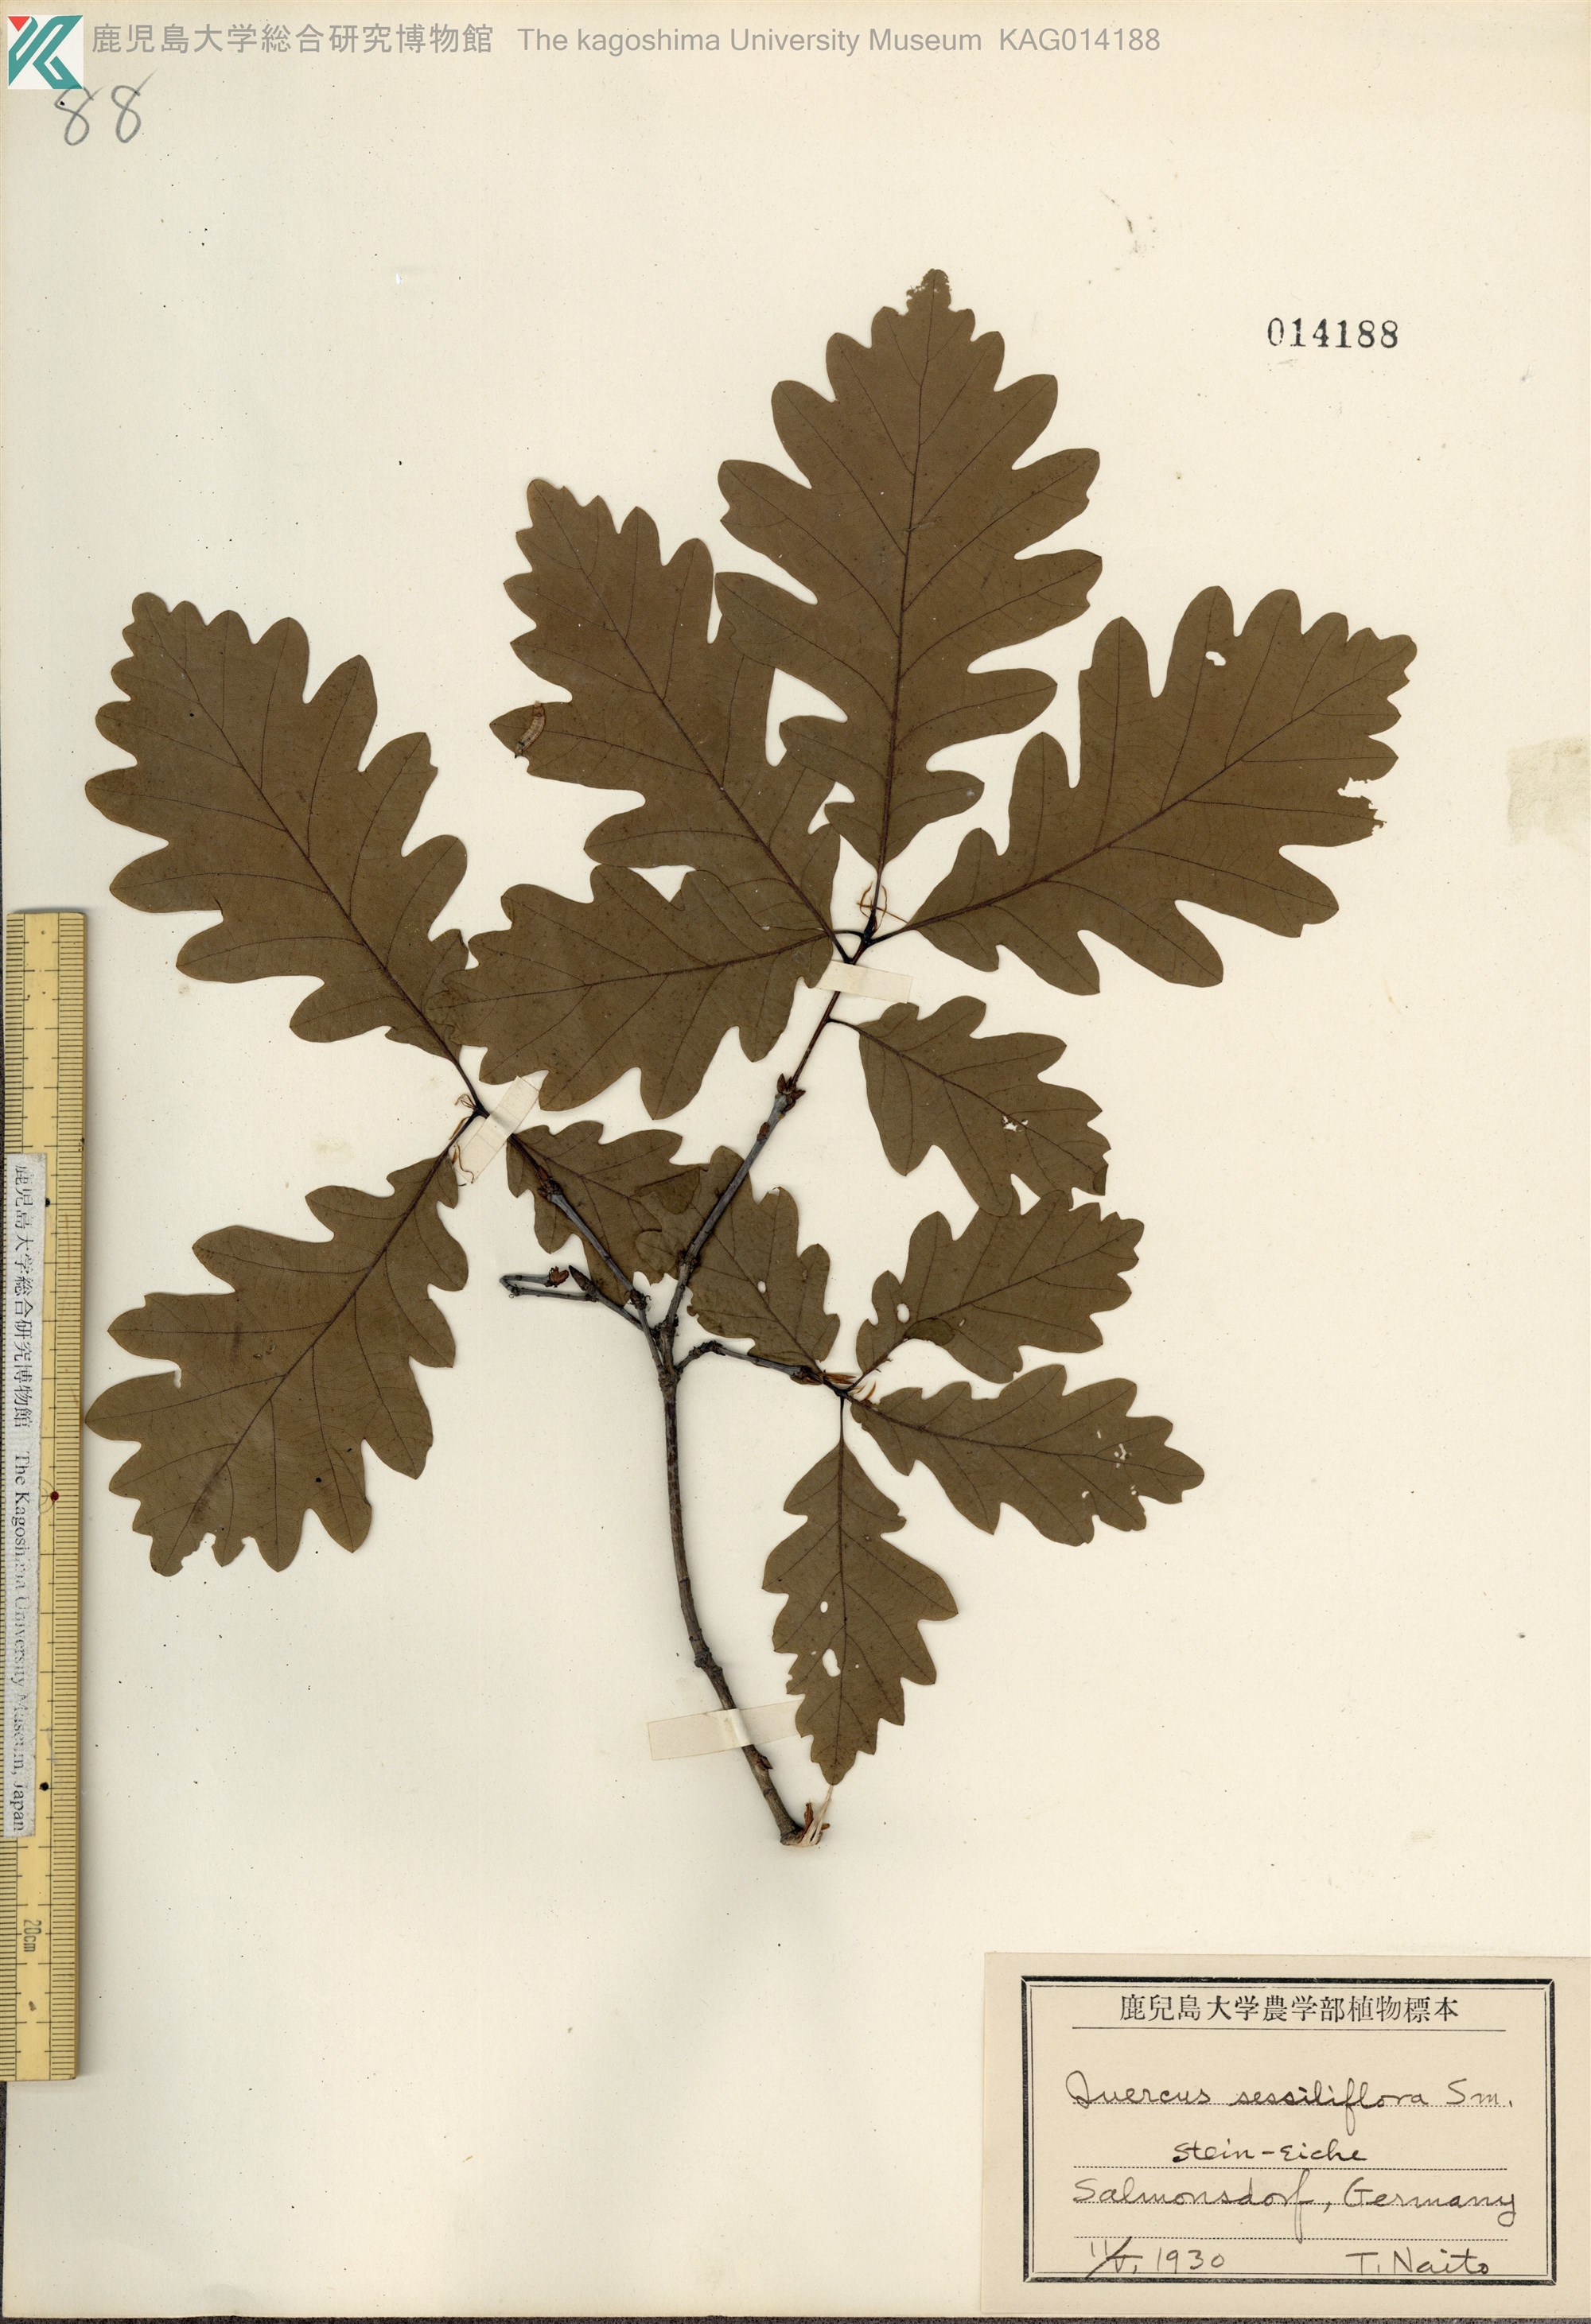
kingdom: Plantae
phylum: Tracheophyta
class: Magnoliopsida
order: Fagales
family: Fagaceae
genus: Quercus
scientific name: Quercus petraea
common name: Sessile oak
